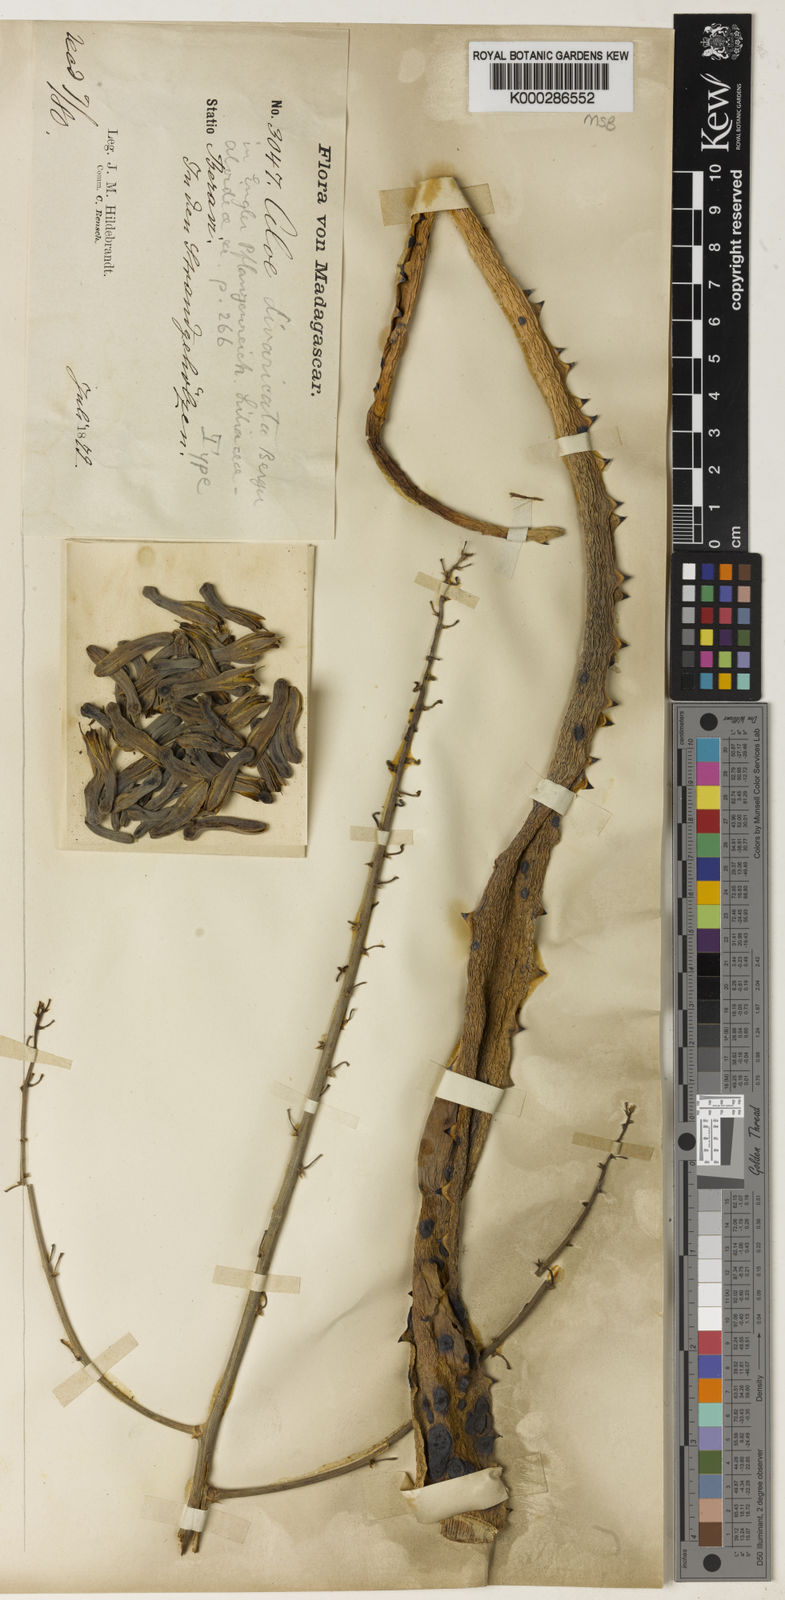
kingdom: Plantae
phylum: Tracheophyta
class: Liliopsida
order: Asparagales
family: Asphodelaceae
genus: Aloe
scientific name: Aloe divaricata
